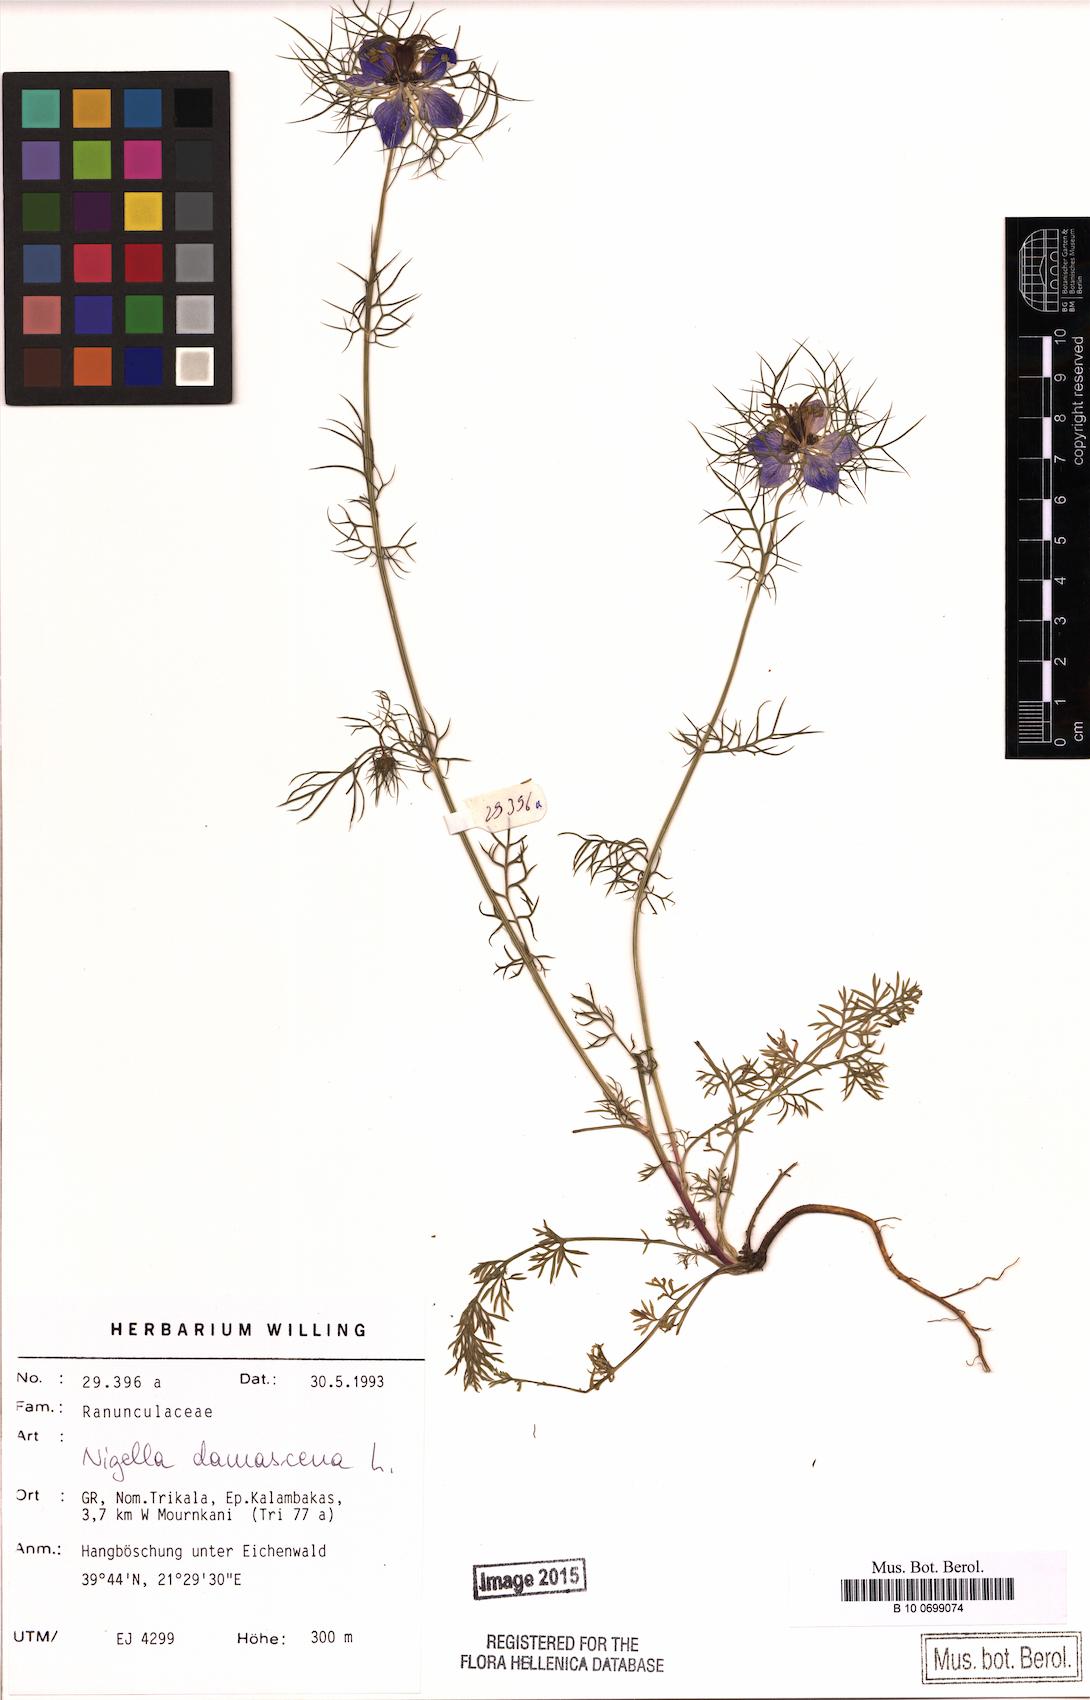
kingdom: Plantae
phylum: Tracheophyta
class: Magnoliopsida
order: Ranunculales
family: Ranunculaceae
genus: Nigella
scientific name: Nigella damascena
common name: Love-in-a-mist
